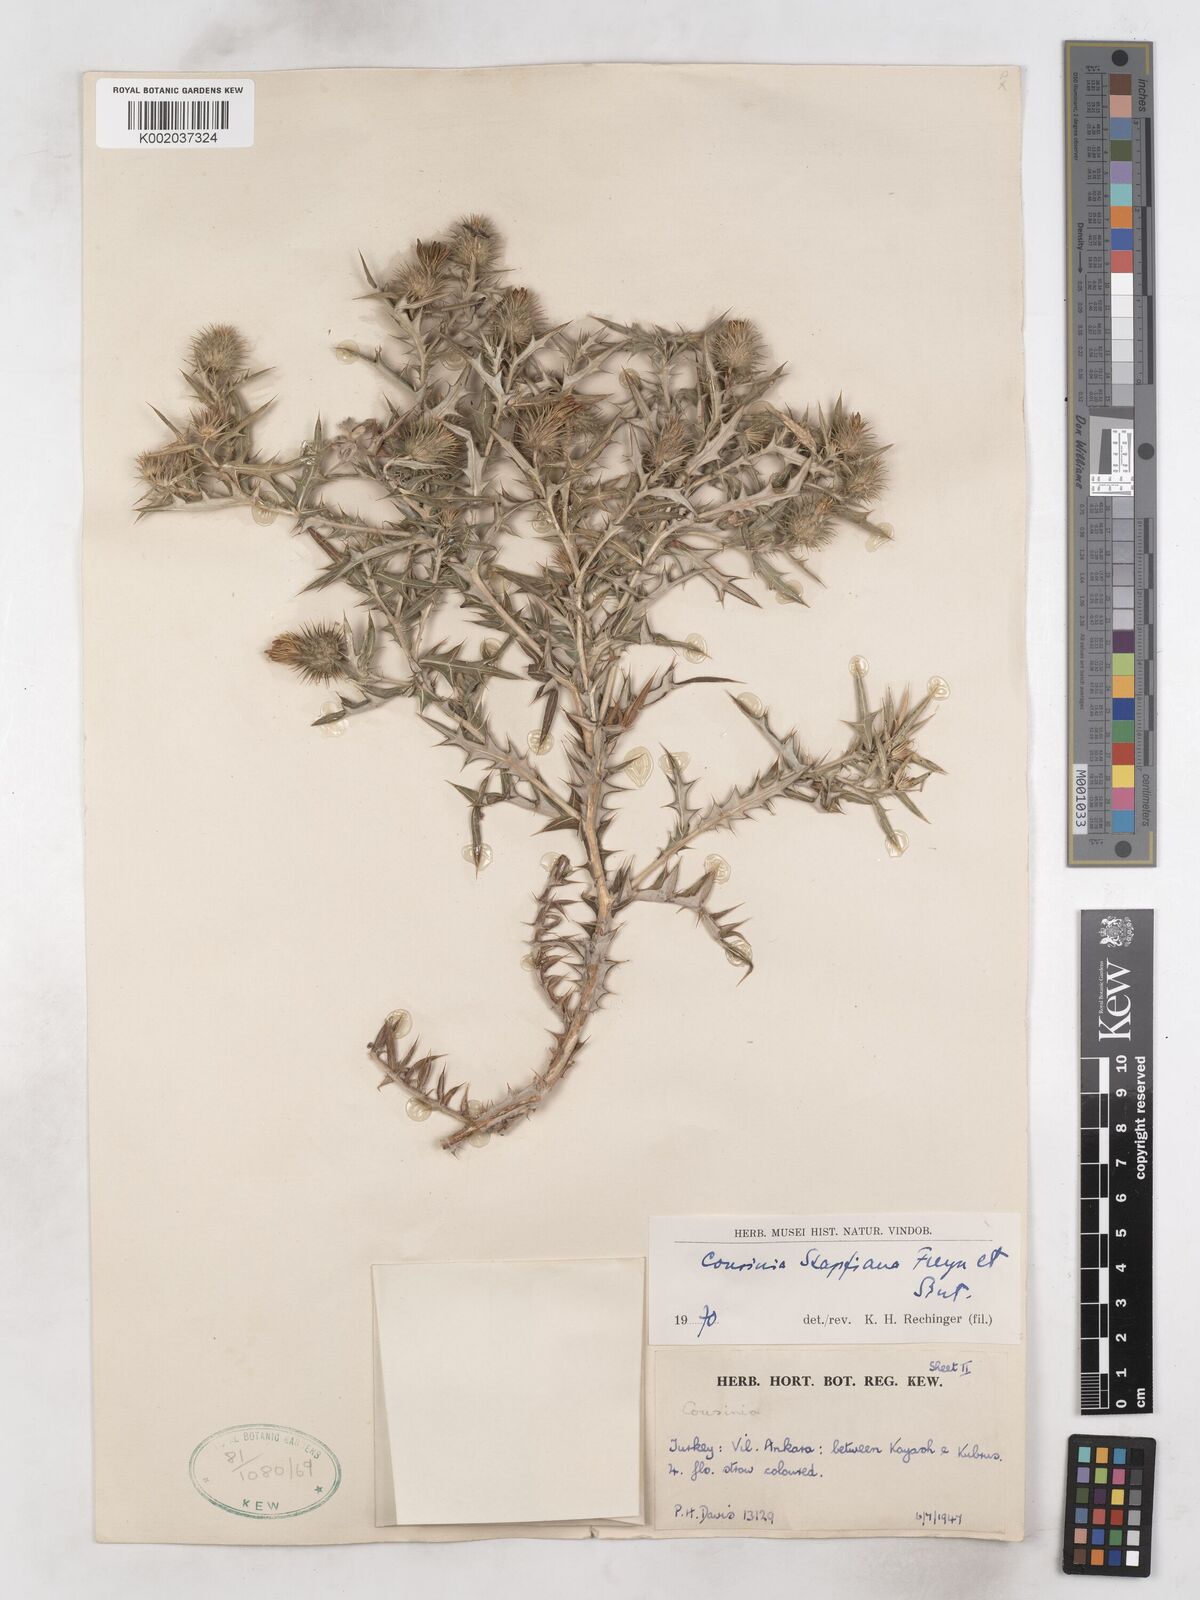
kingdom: Plantae
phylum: Tracheophyta
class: Magnoliopsida
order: Asterales
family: Asteraceae
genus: Cousinia
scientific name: Cousinia stapfiana
